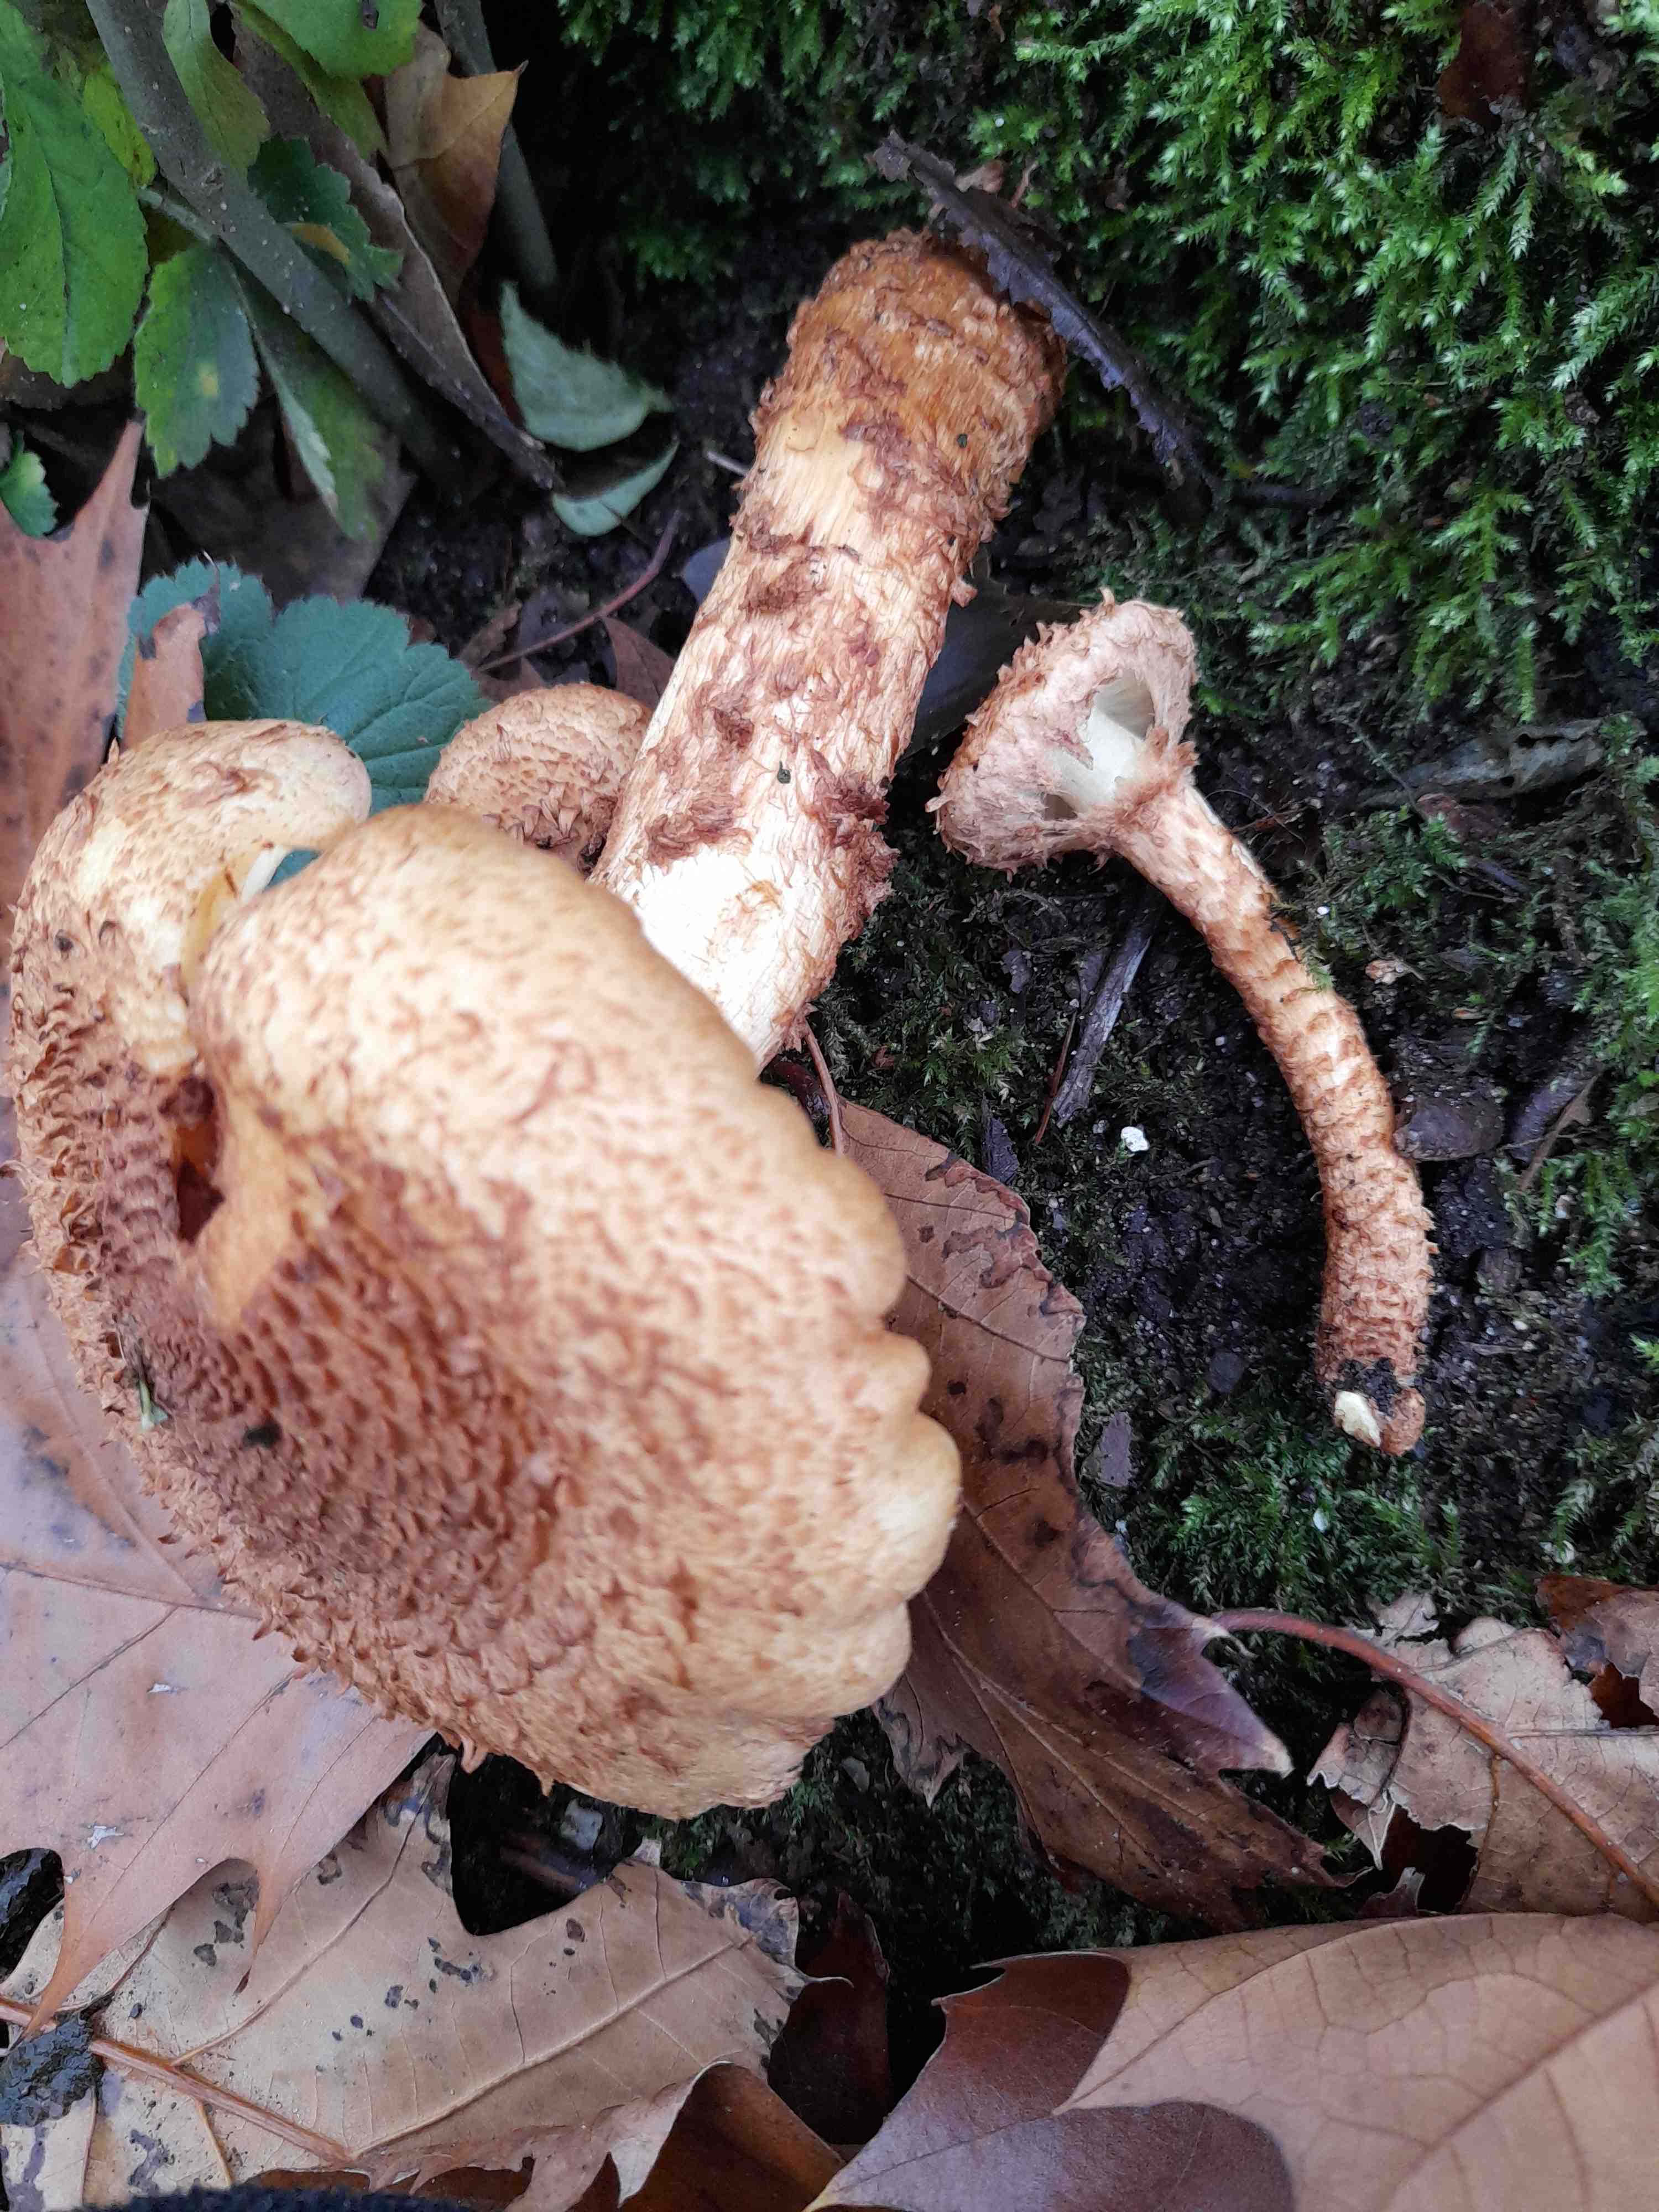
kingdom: Fungi
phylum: Basidiomycota
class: Agaricomycetes
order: Agaricales
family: Strophariaceae
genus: Pholiota
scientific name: Pholiota squarrosa
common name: krumskællet skælhat
